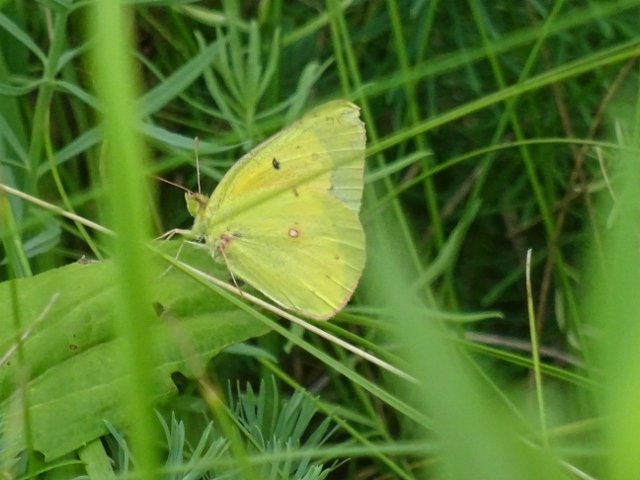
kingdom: Animalia
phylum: Arthropoda
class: Insecta
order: Lepidoptera
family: Pieridae
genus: Colias
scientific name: Colias eurytheme
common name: Orange Sulphur
